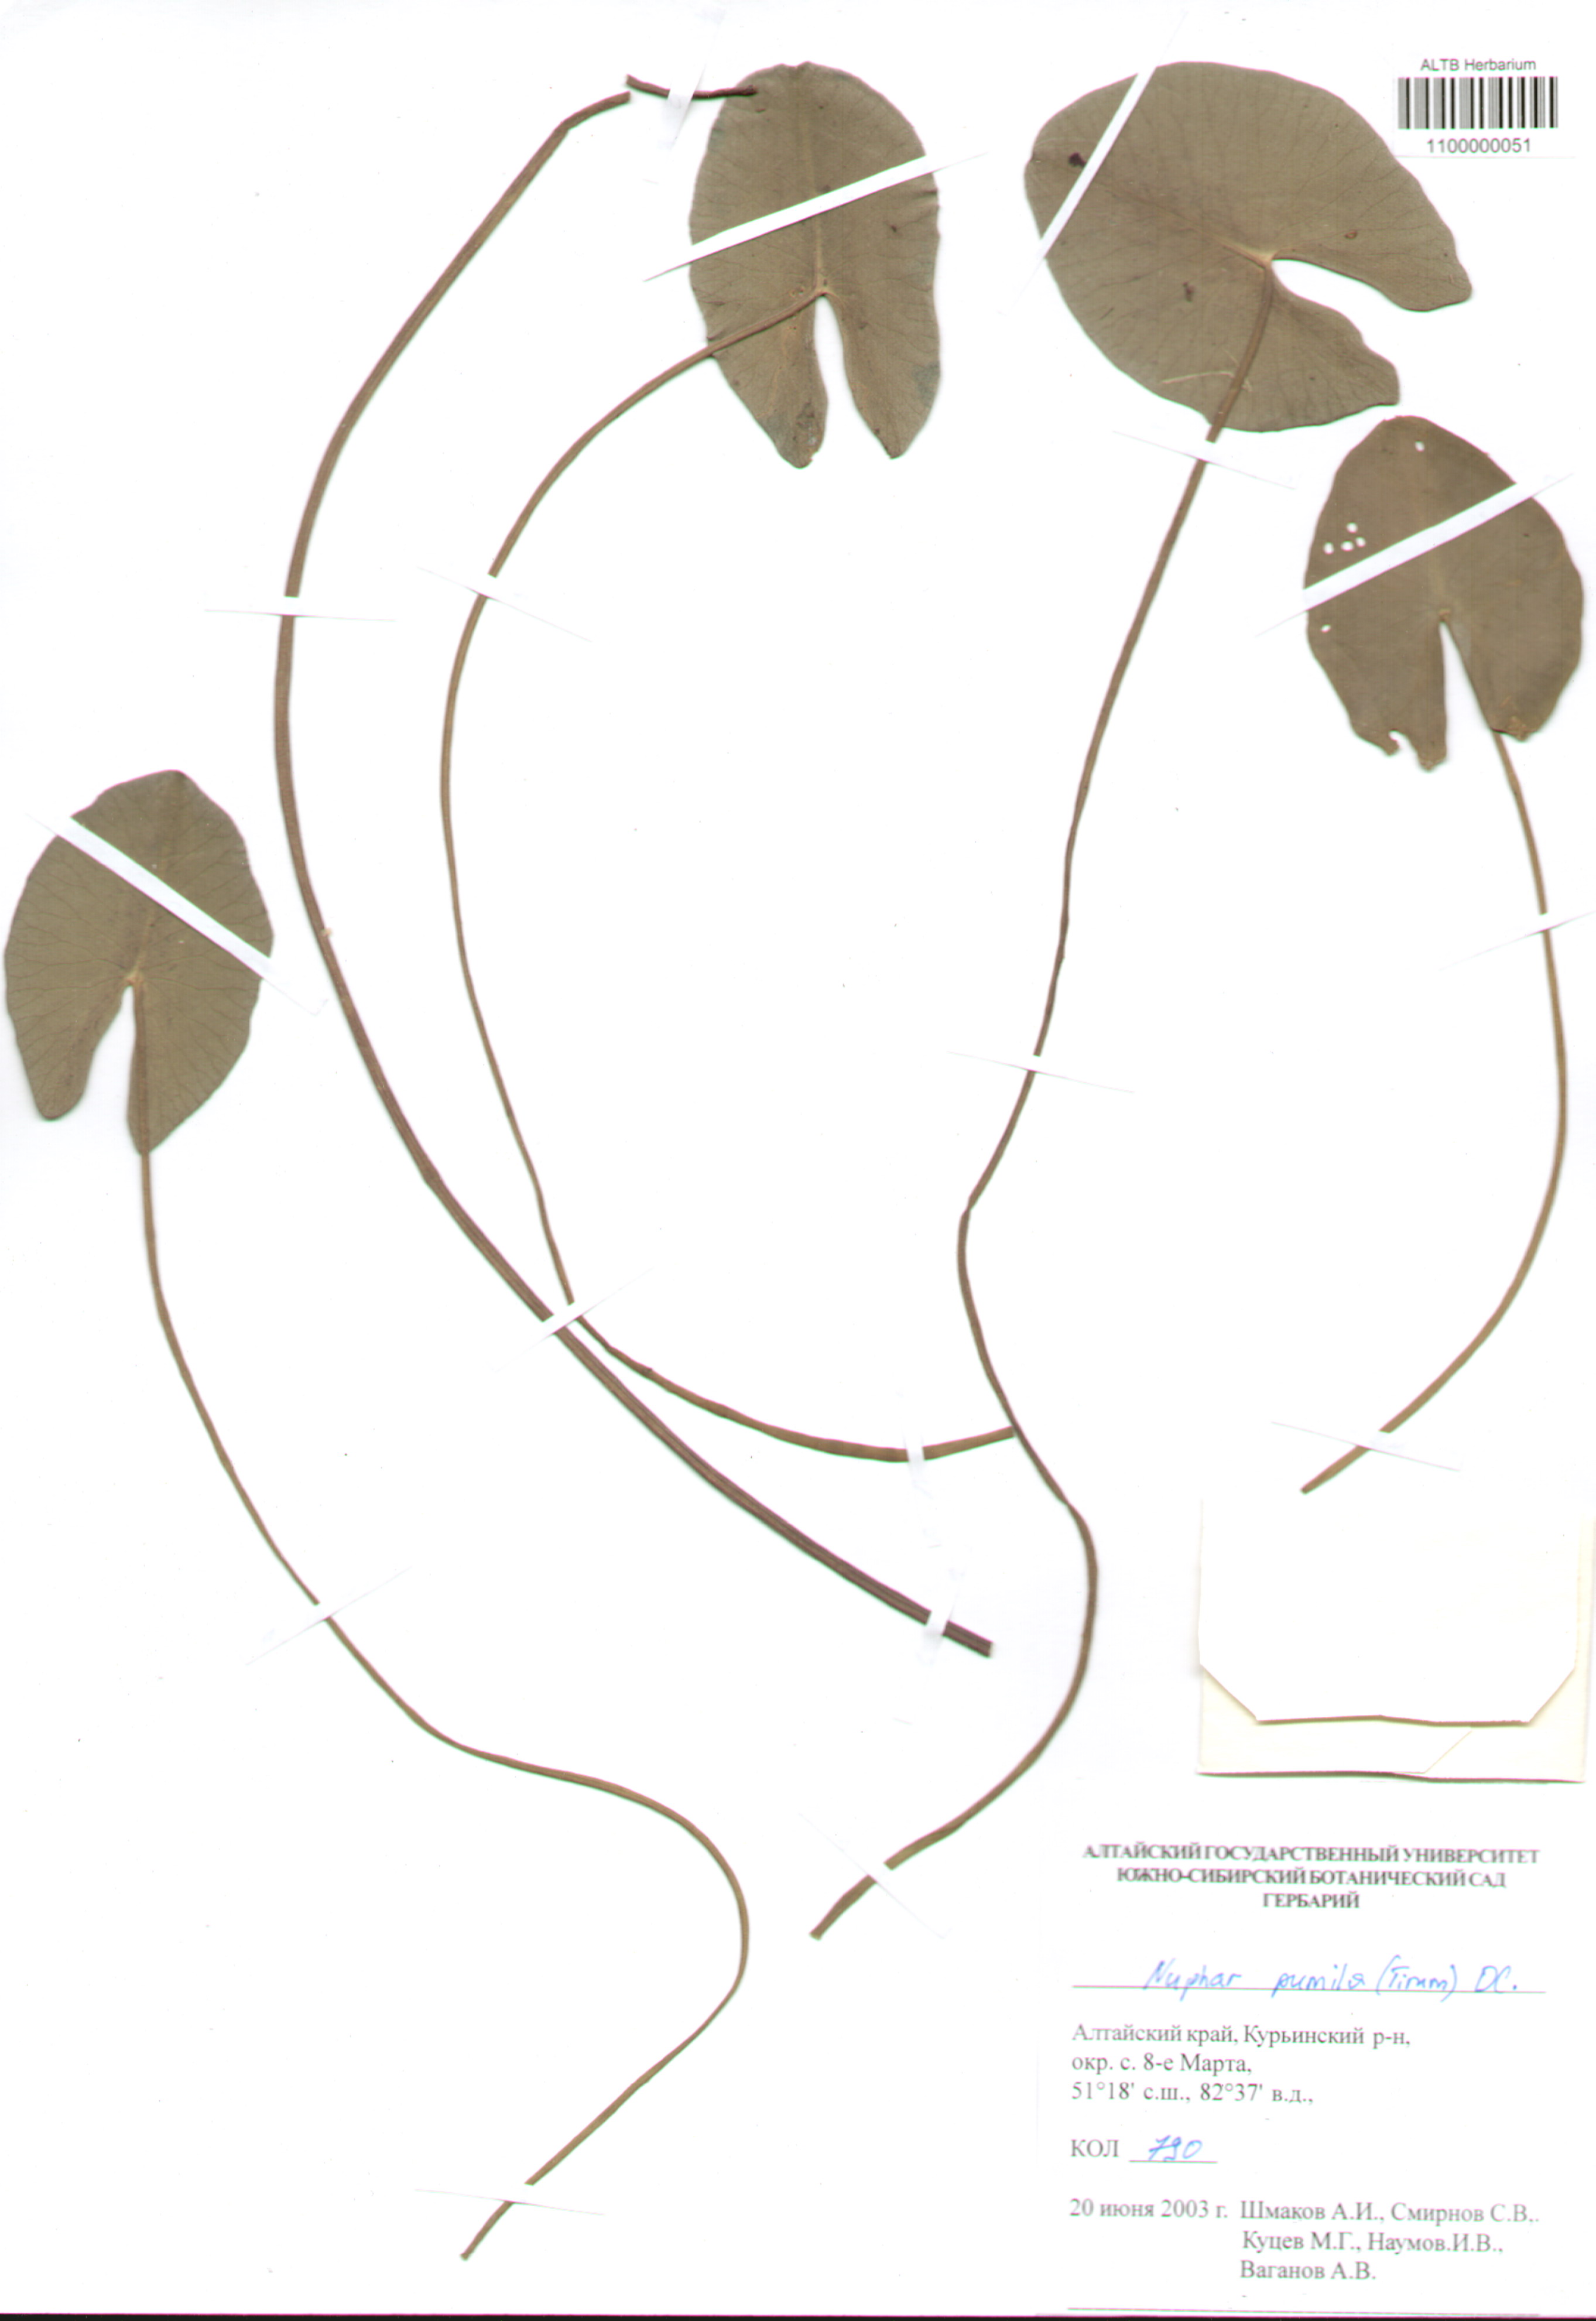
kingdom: Plantae
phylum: Tracheophyta
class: Magnoliopsida
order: Nymphaeales
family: Nymphaeaceae
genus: Nuphar
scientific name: Nuphar pumila
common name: Least water-lily
